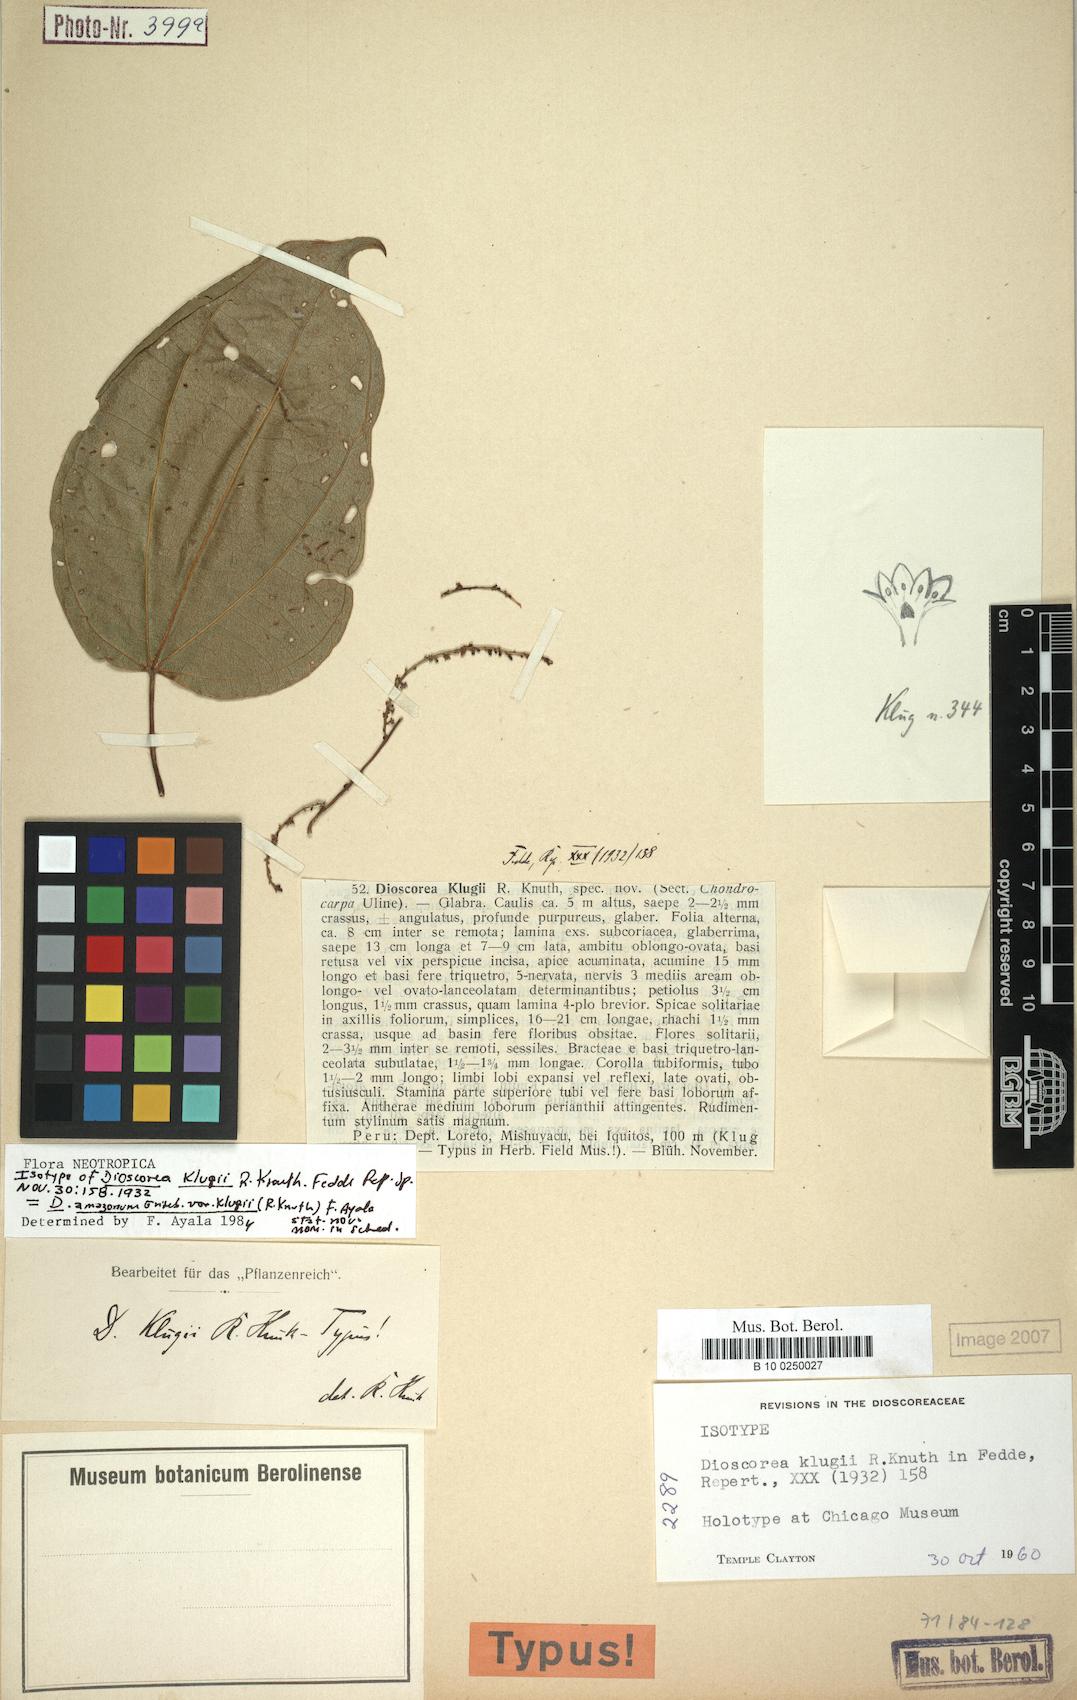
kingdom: Plantae
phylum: Tracheophyta
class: Liliopsida
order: Dioscoreales
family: Dioscoreaceae
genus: Dioscorea
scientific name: Dioscorea amazonum
